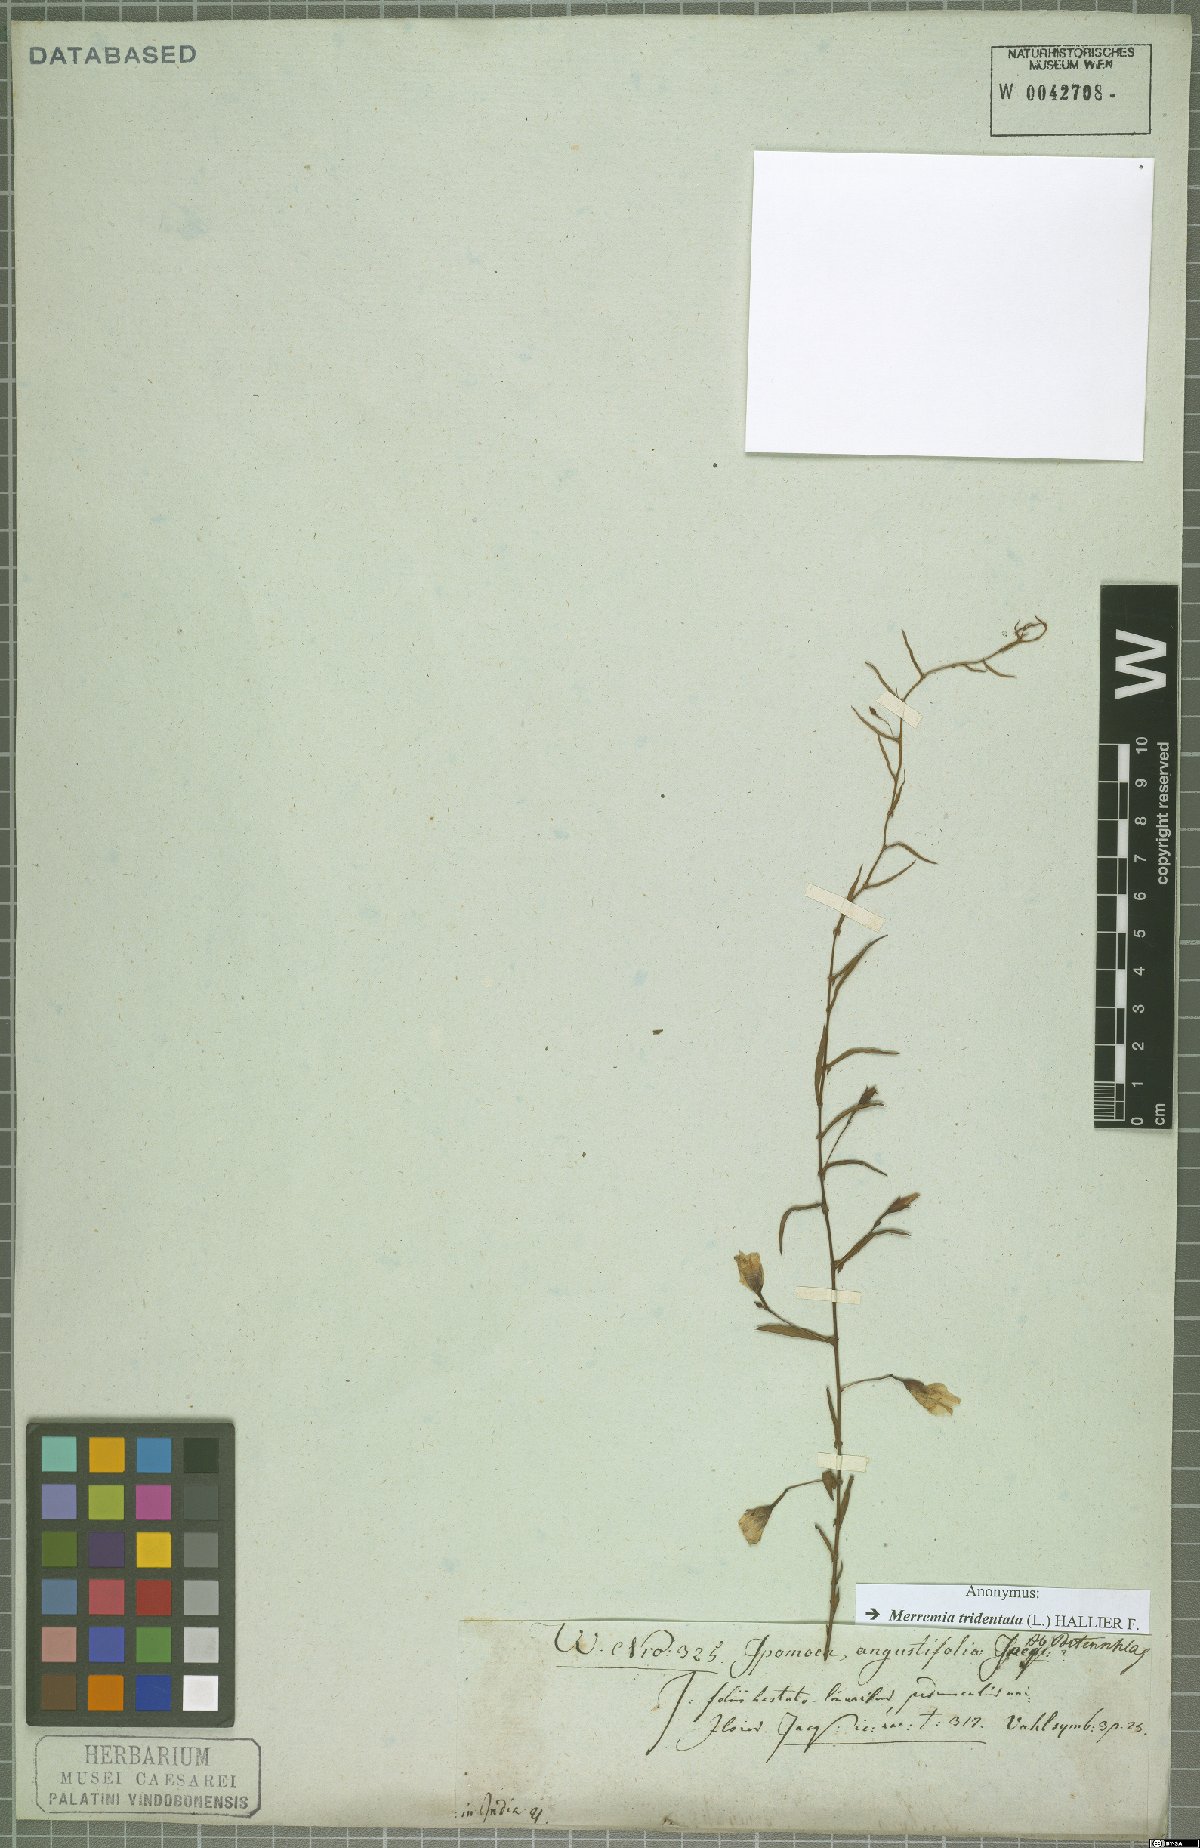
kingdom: Plantae
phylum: Tracheophyta
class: Magnoliopsida
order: Solanales
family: Convolvulaceae
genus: Xenostegia
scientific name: Xenostegia tridentata
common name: African morningvine
